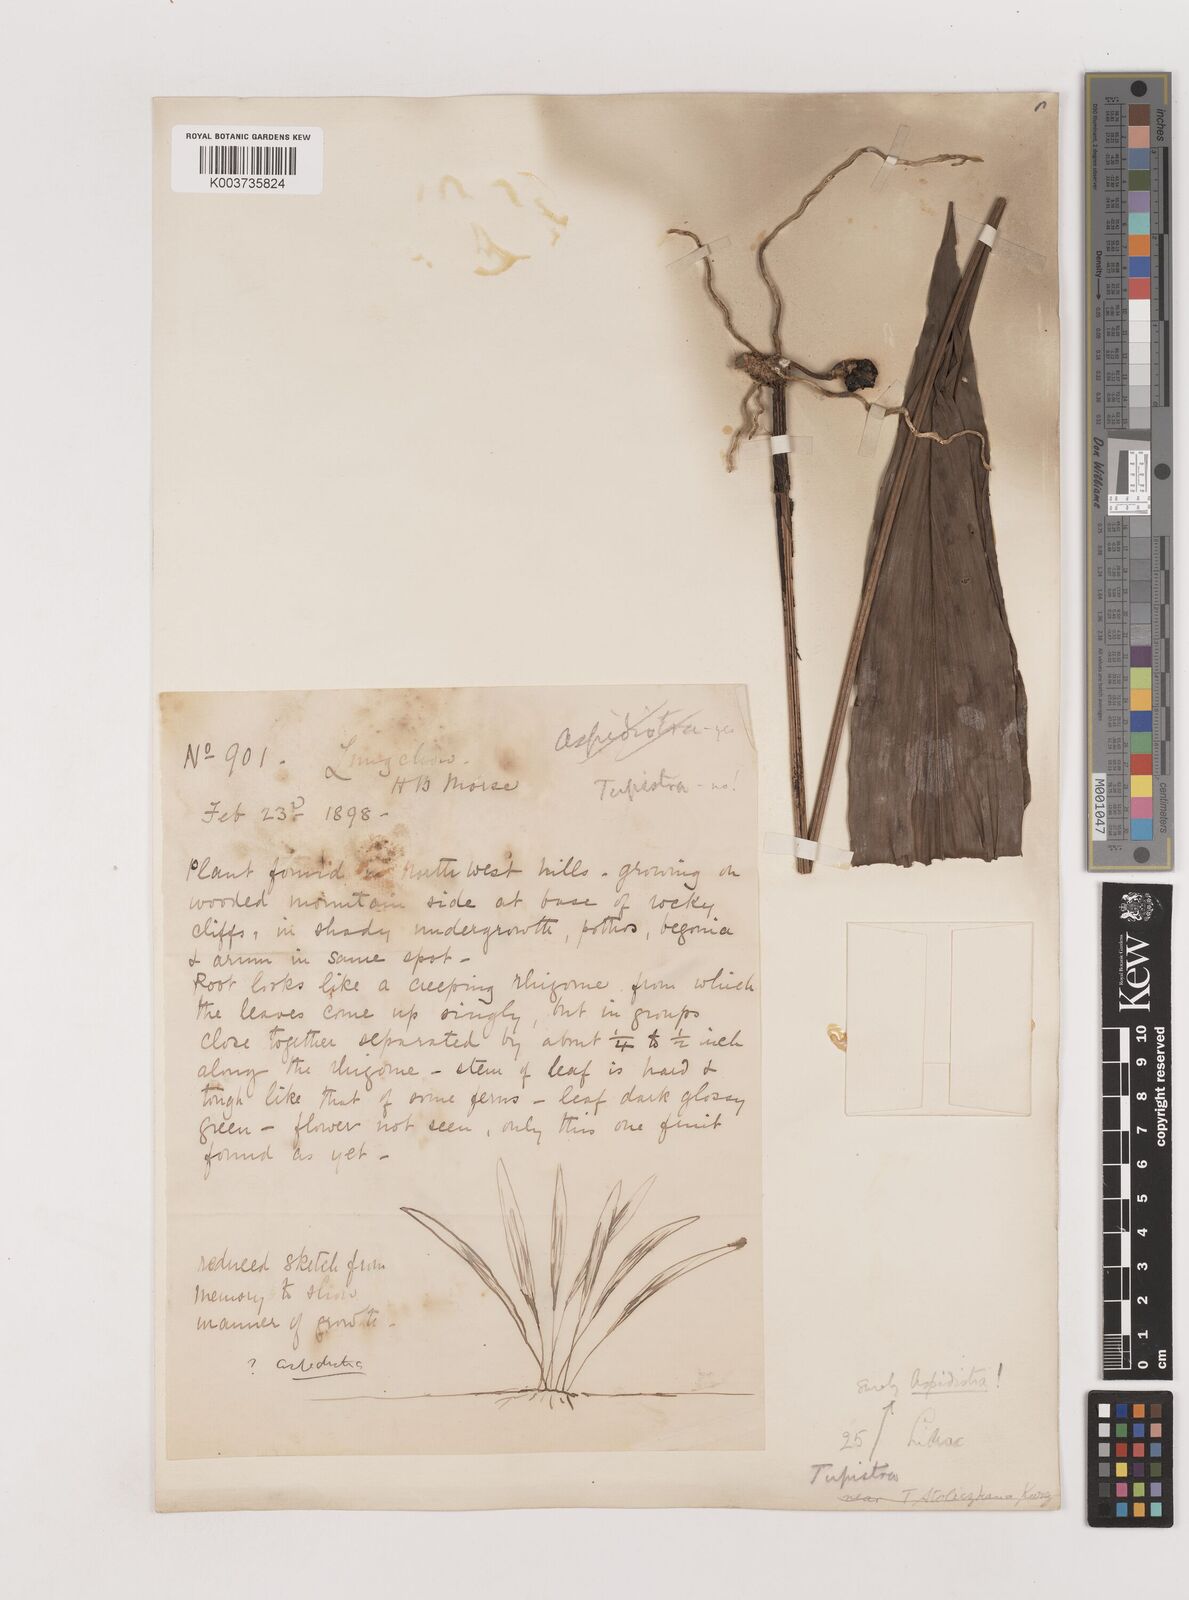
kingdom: Plantae
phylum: Tracheophyta
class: Liliopsida
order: Asparagales
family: Asparagaceae
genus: Aspidistra
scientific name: Aspidistra
